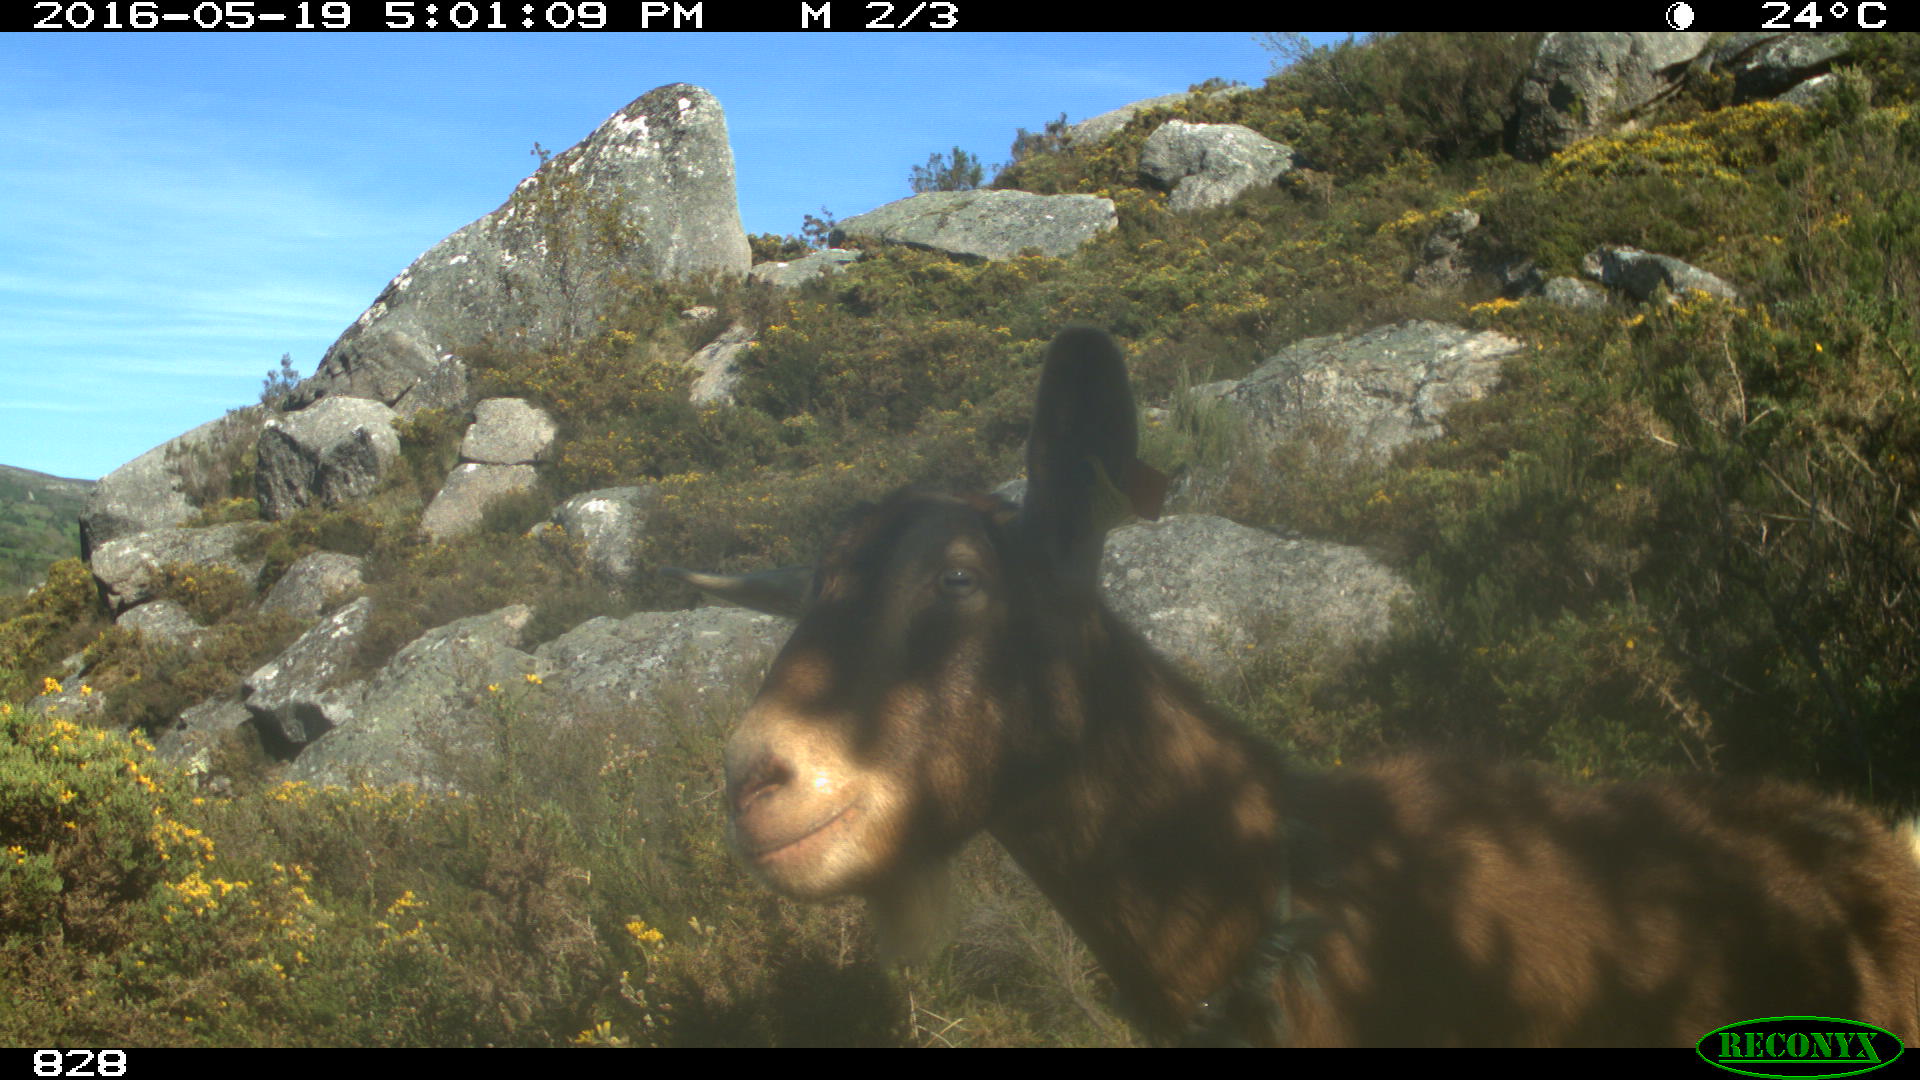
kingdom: Animalia
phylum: Chordata
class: Mammalia
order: Artiodactyla
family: Bovidae
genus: Capra
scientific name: Capra hircus
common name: Domestic goat
